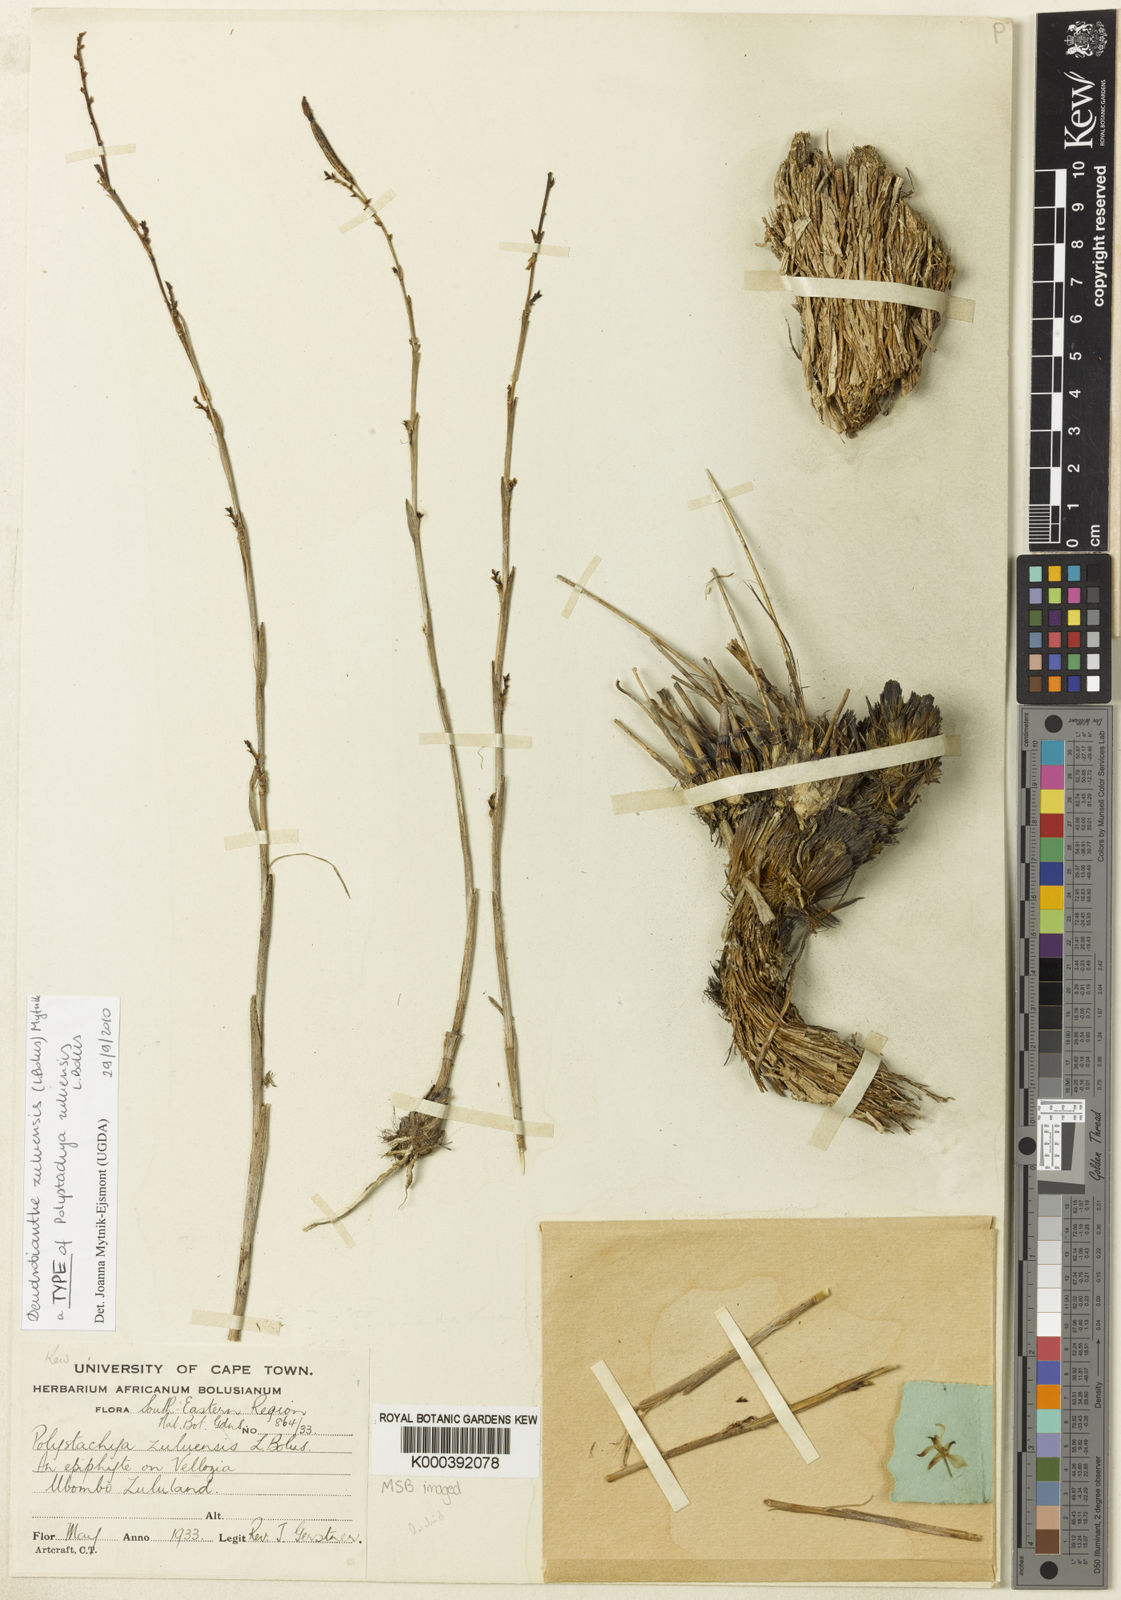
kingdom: Plantae
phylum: Tracheophyta
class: Liliopsida
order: Asparagales
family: Orchidaceae
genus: Polystachya
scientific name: Polystachya zuluensis
